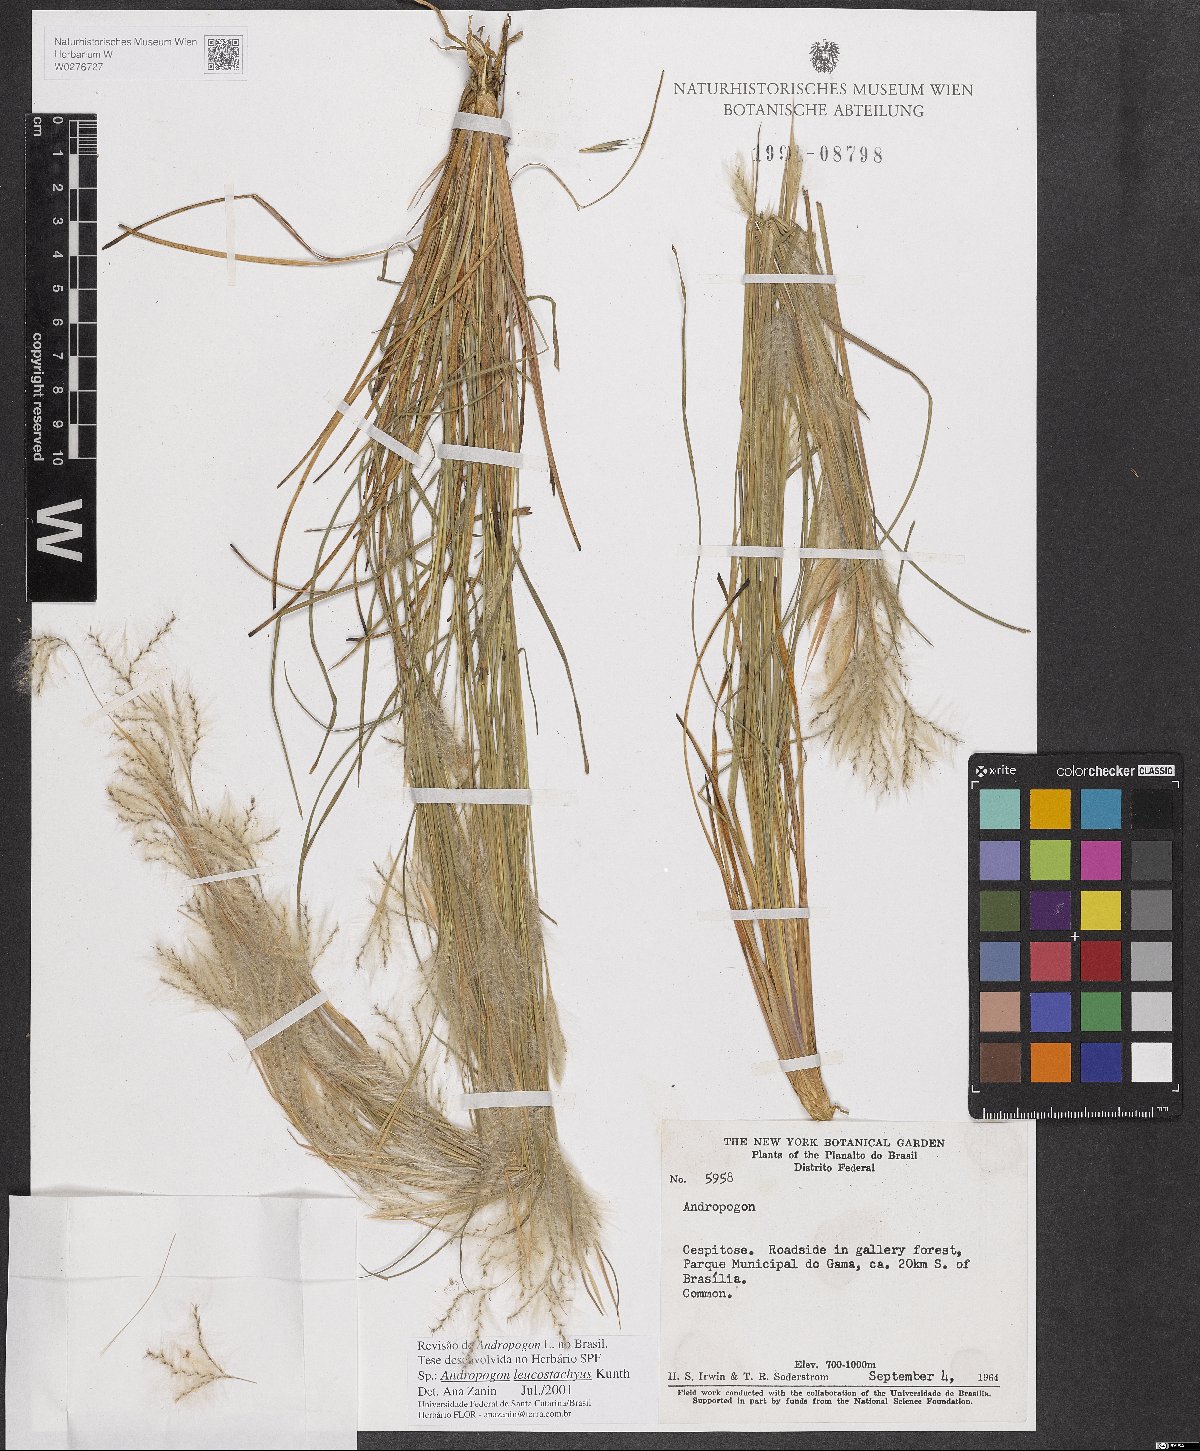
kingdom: Plantae
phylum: Tracheophyta
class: Liliopsida
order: Poales
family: Poaceae
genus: Andropogon
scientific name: Andropogon leucostachyus
